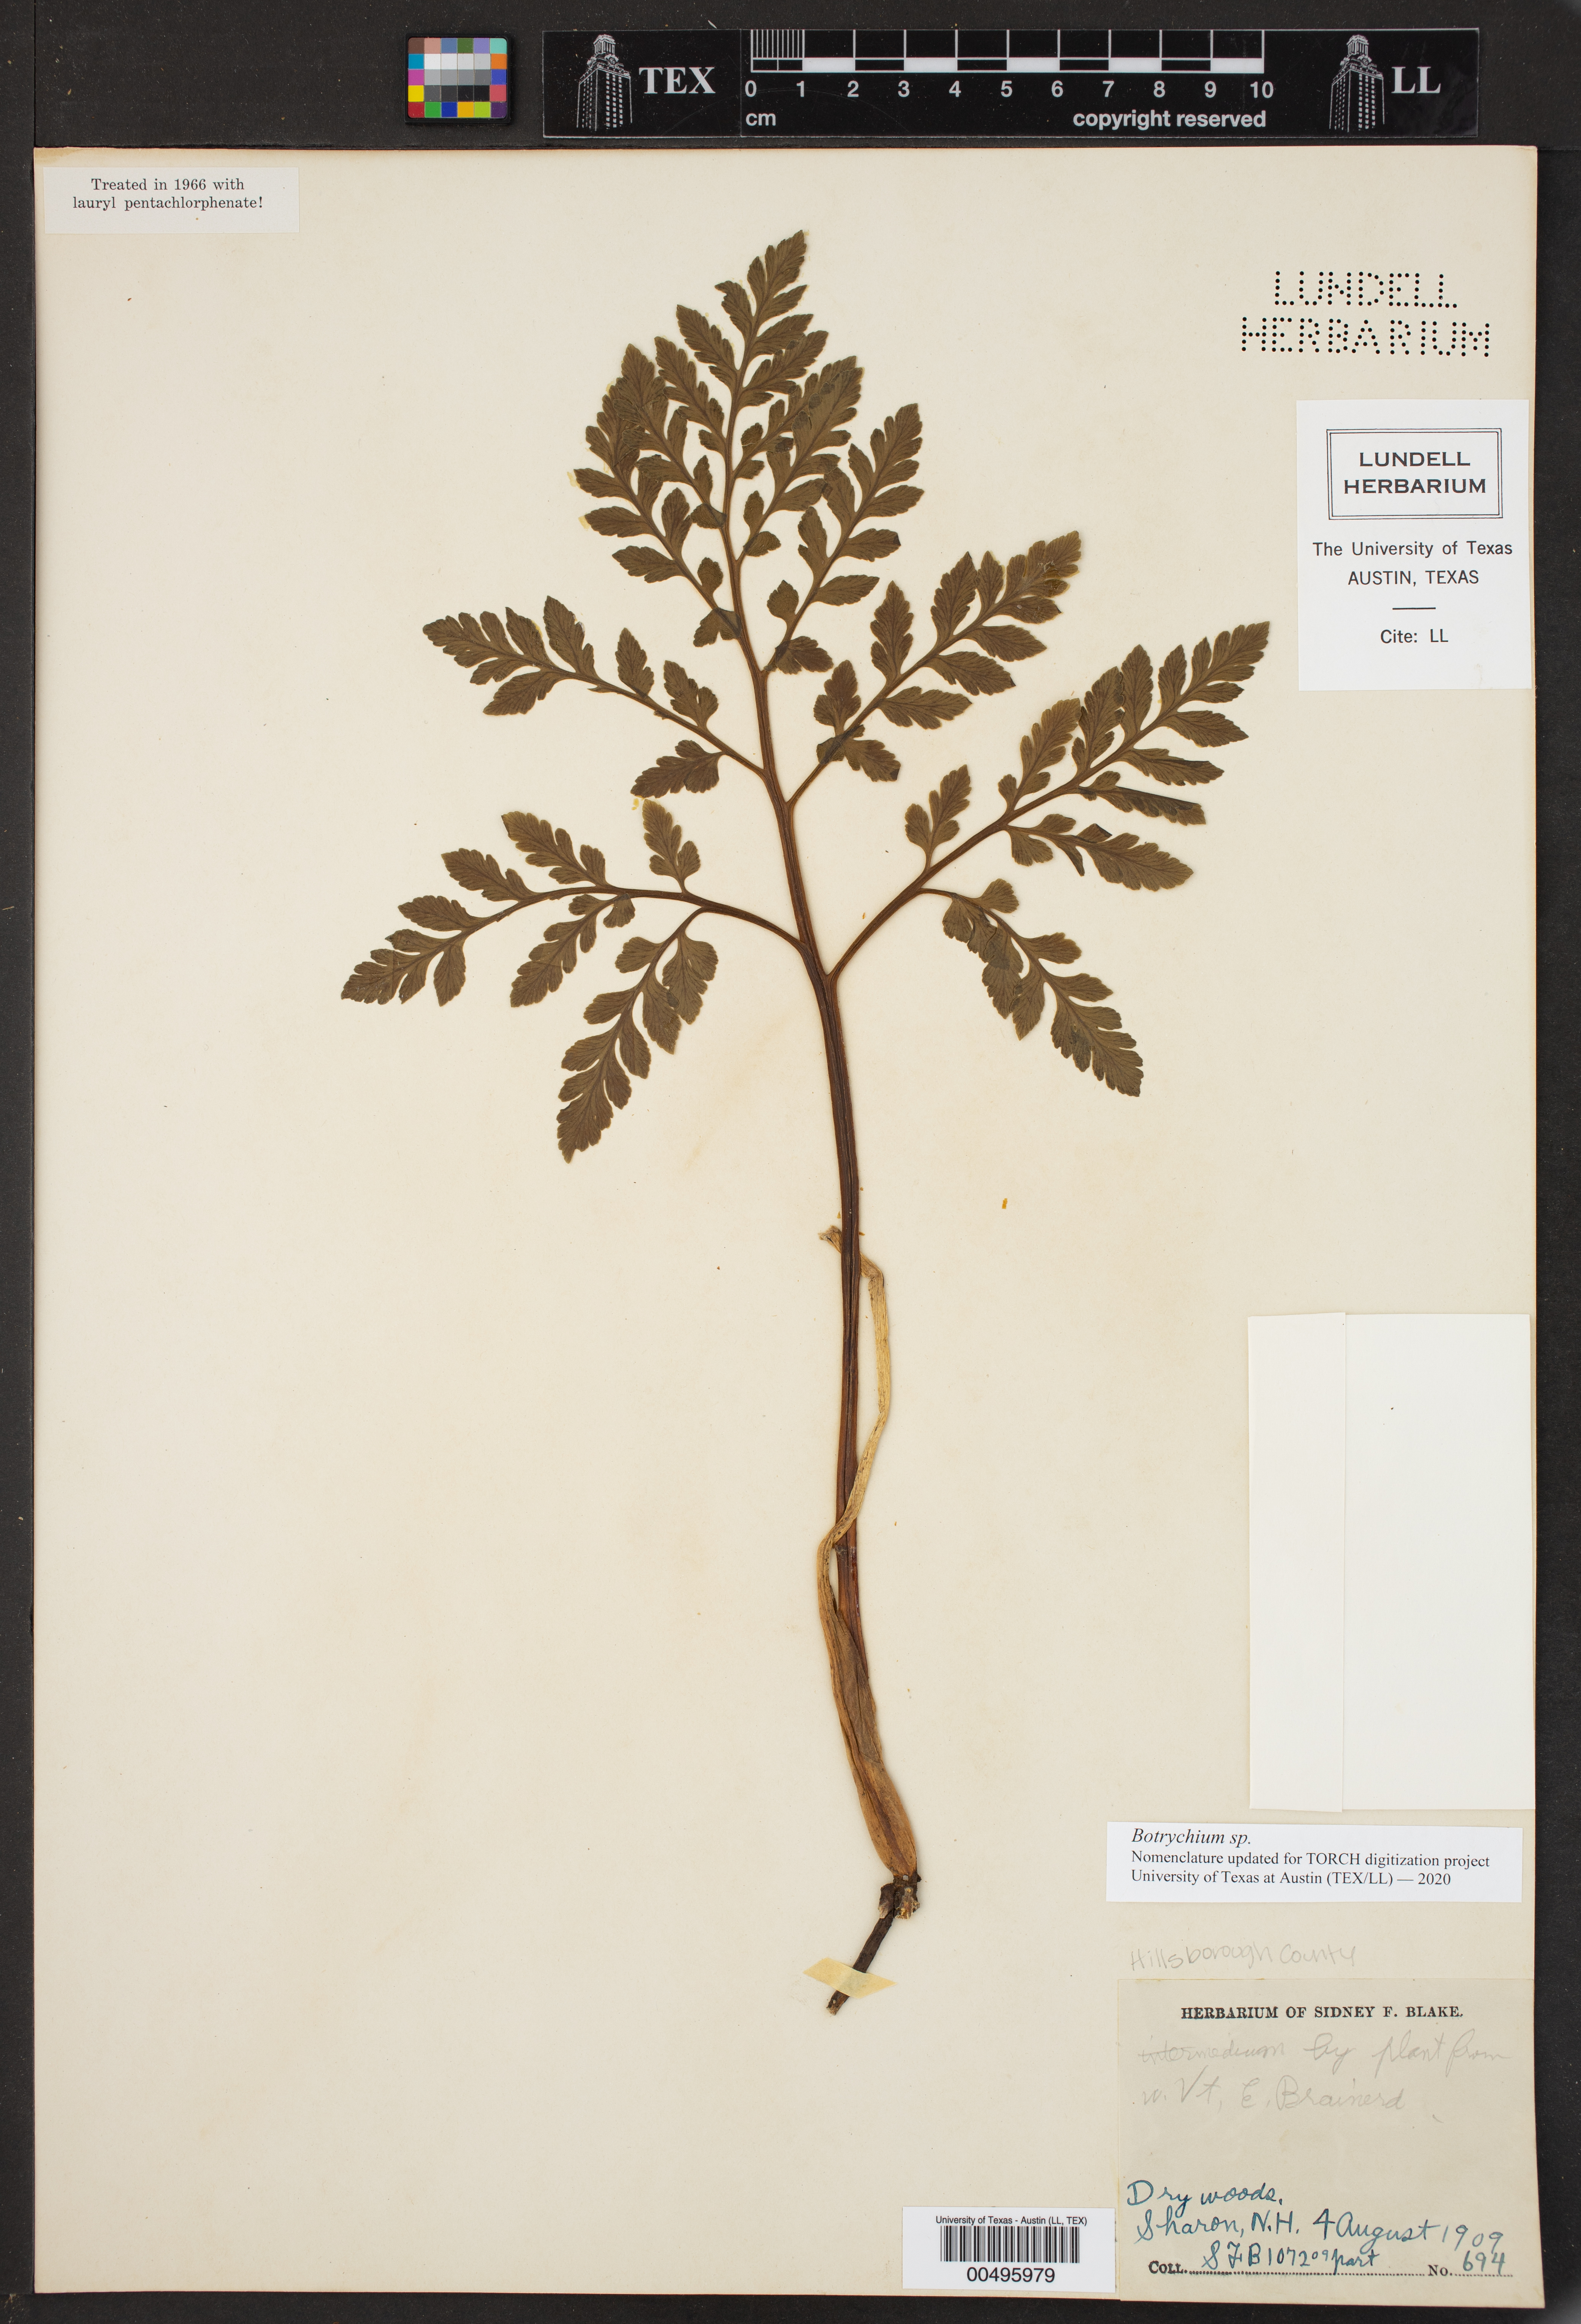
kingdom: Plantae
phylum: Tracheophyta
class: Polypodiopsida
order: Ophioglossales
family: Ophioglossaceae
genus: Botrychium
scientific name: Botrychium
